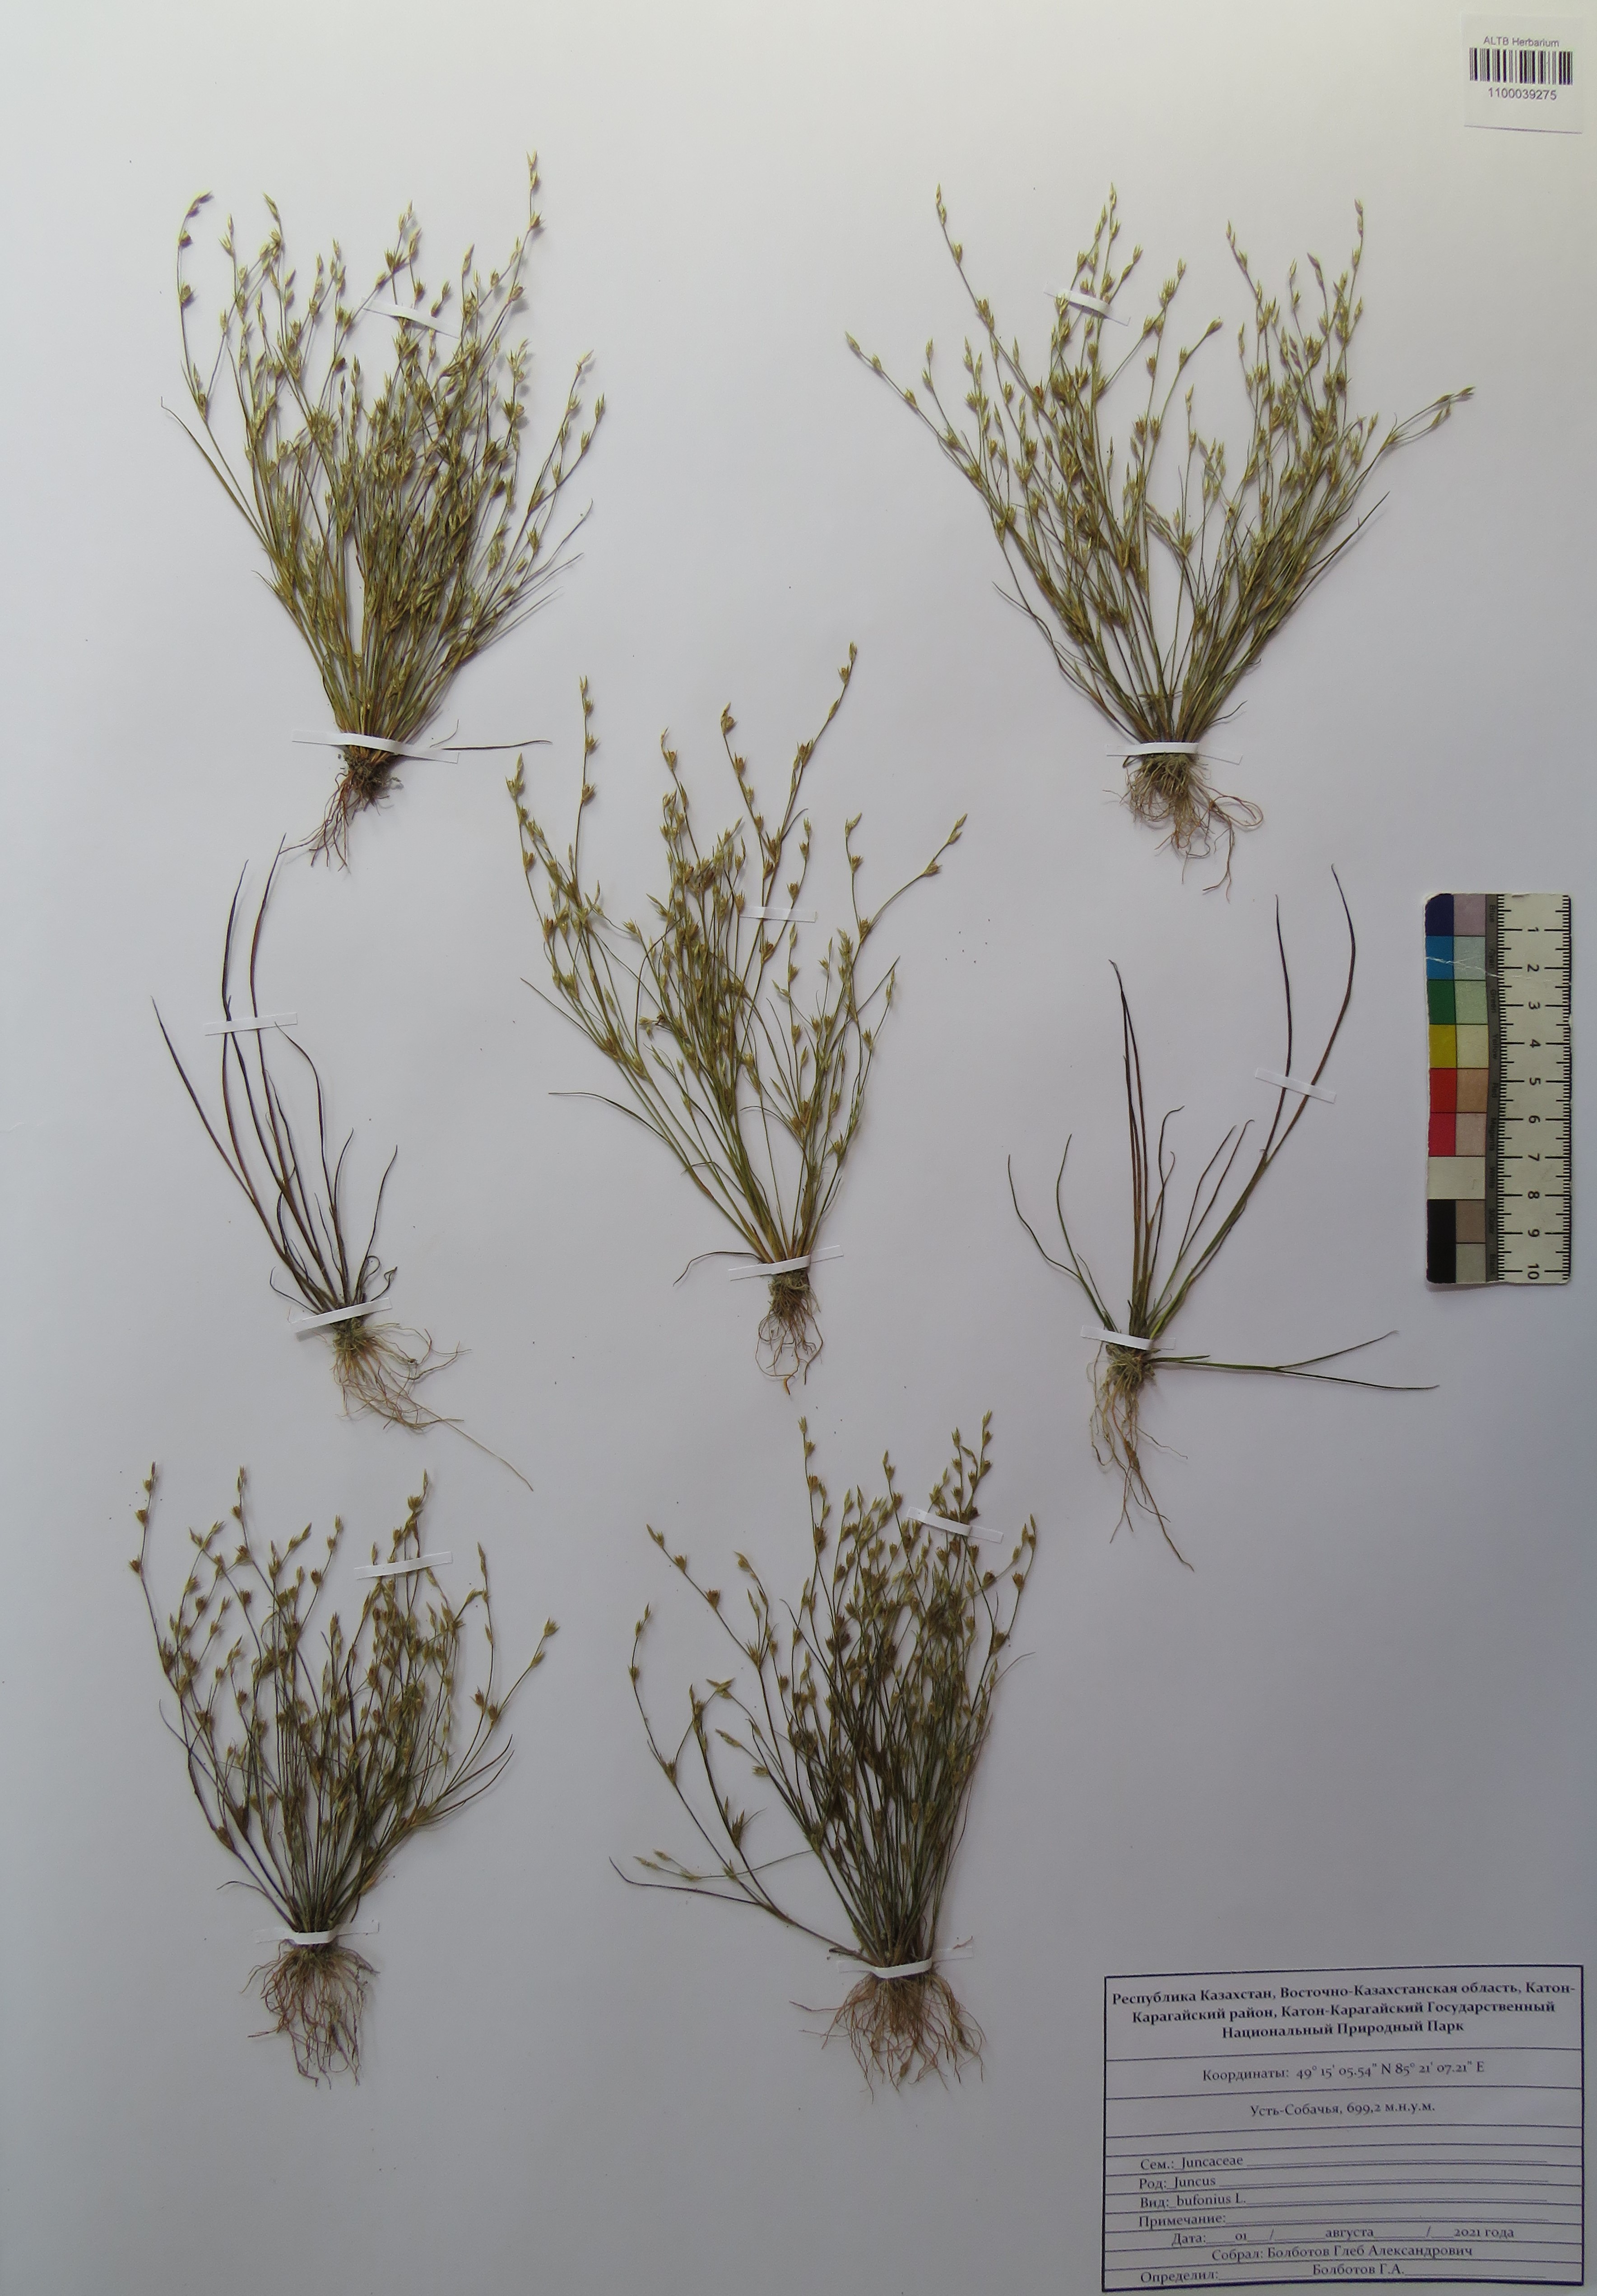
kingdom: Plantae
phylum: Tracheophyta
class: Liliopsida
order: Poales
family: Juncaceae
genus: Juncus
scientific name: Juncus bufonius
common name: Toad rush
